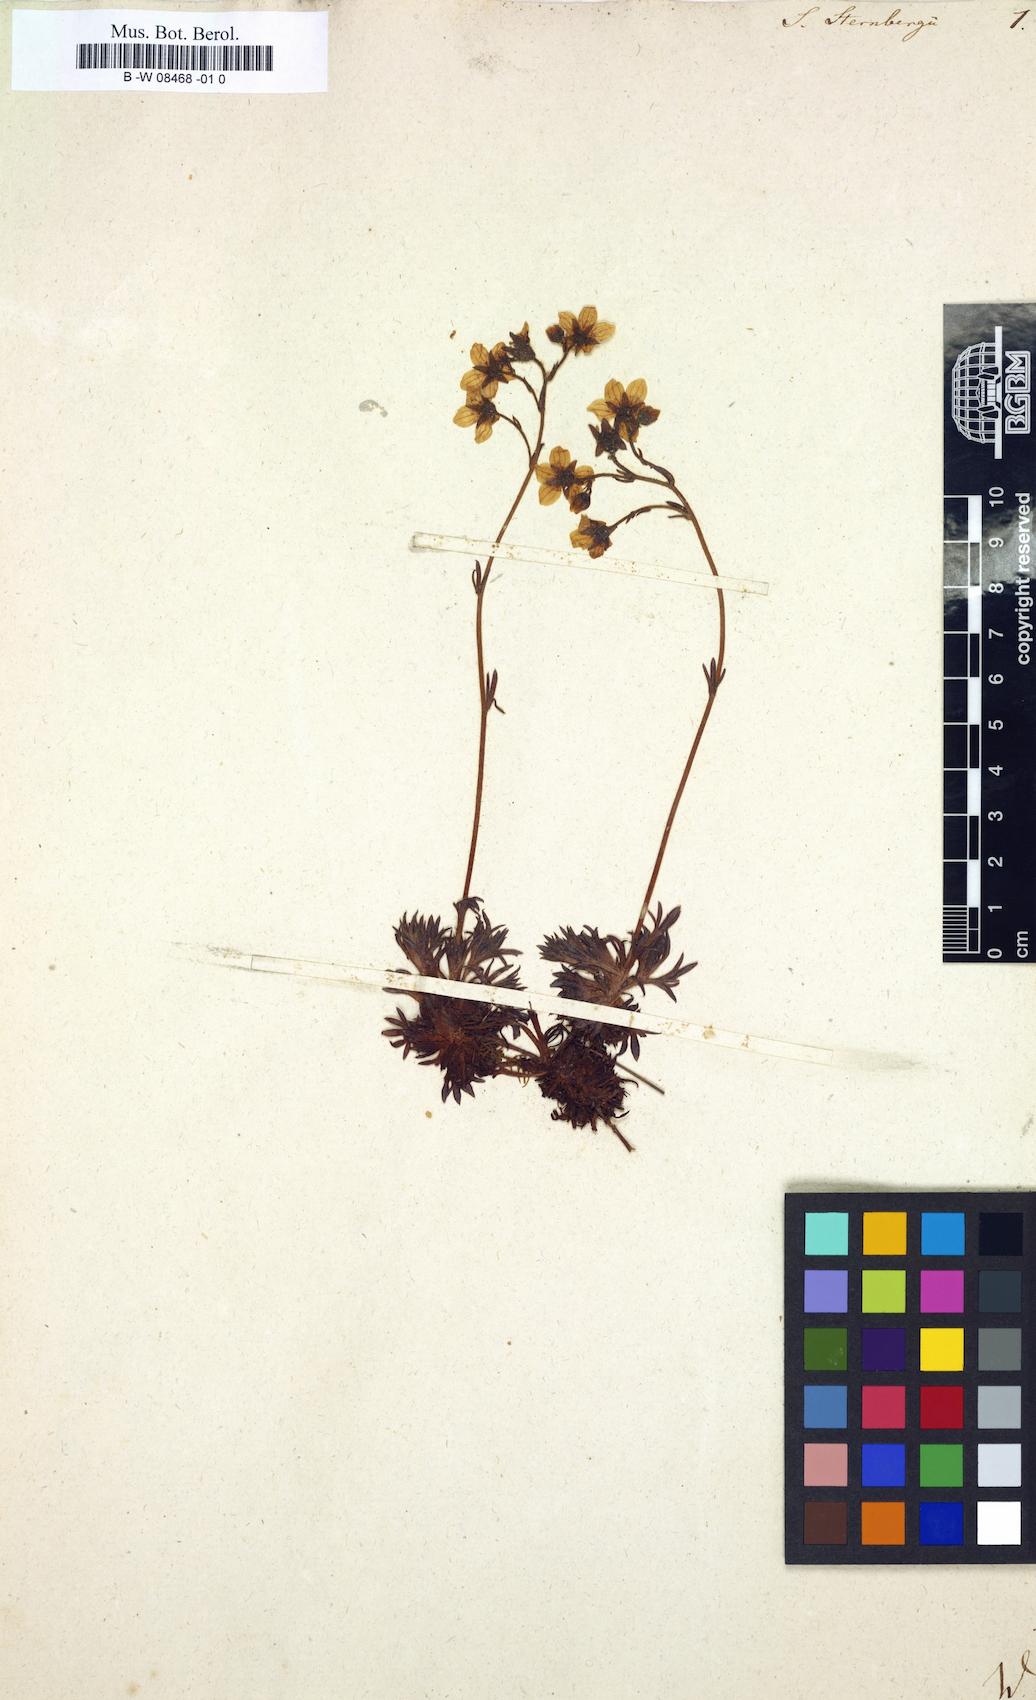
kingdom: Plantae
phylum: Tracheophyta
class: Magnoliopsida
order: Saxifragales
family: Saxifragaceae
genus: Saxifraga
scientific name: Saxifraga rosacea
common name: Irish saxifrage
